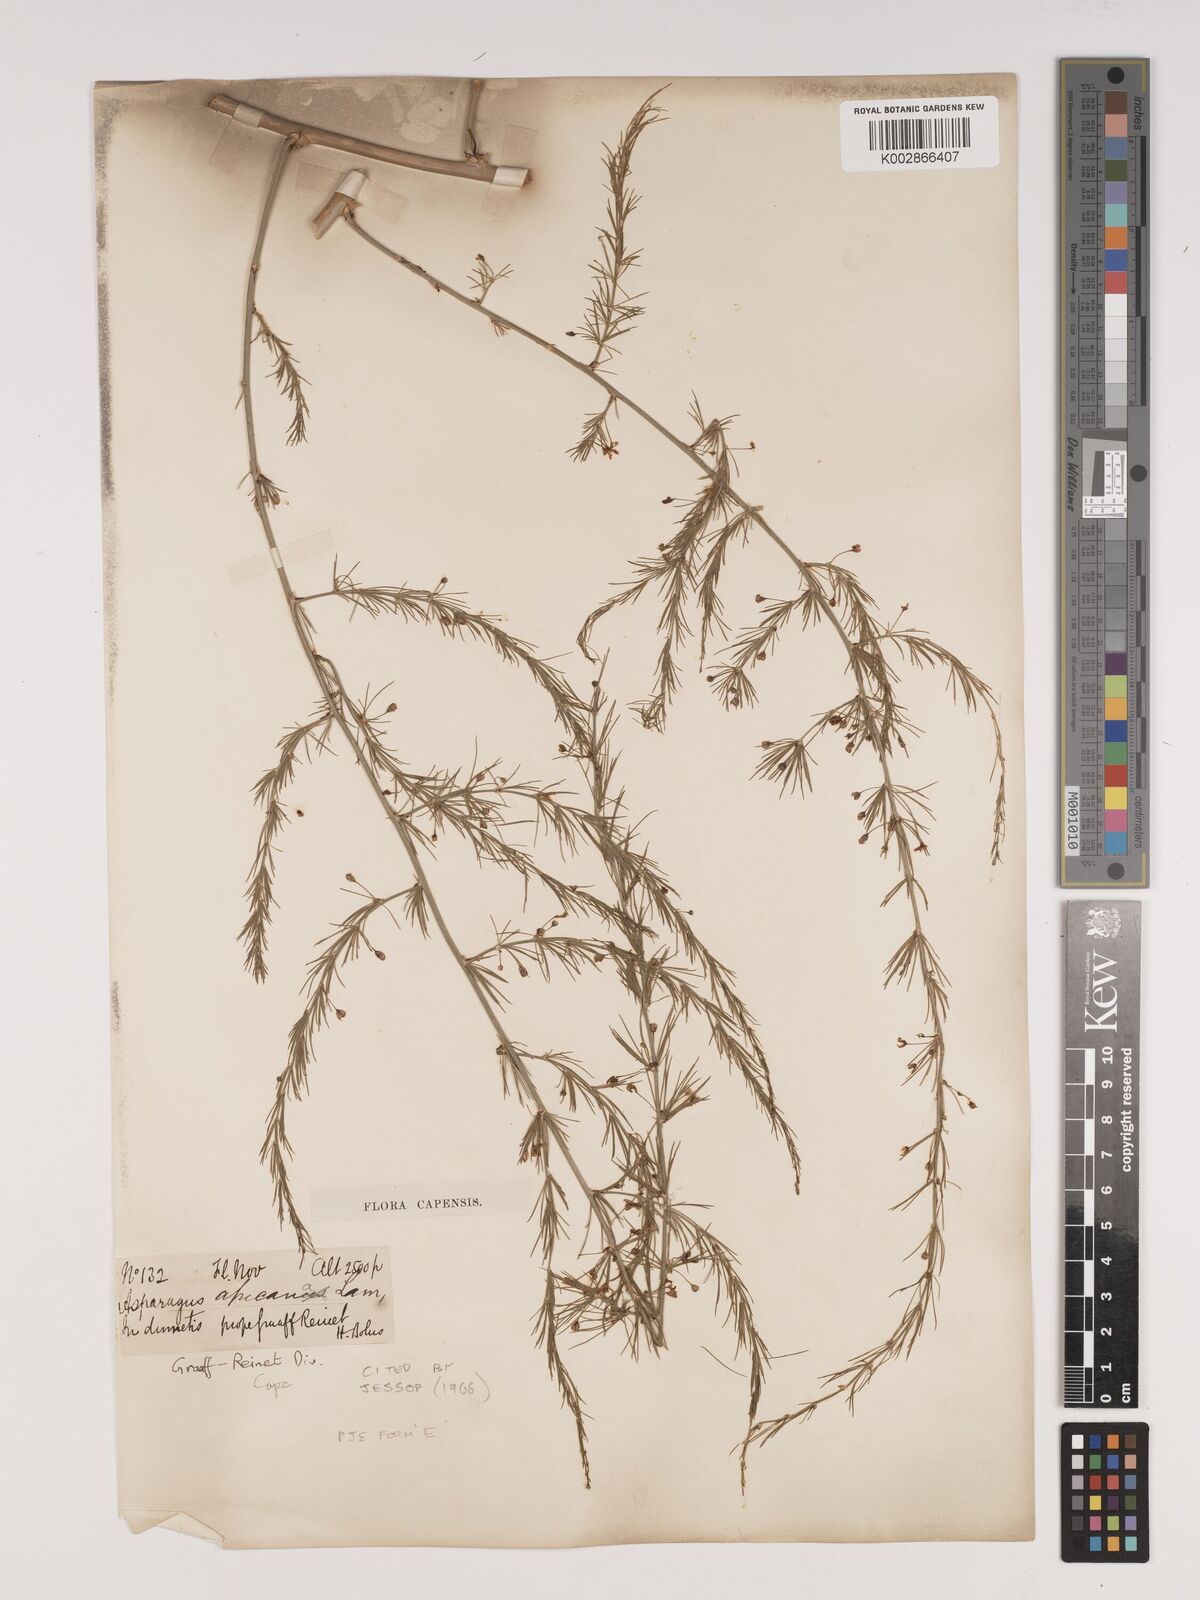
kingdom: Plantae
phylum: Tracheophyta
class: Liliopsida
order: Asparagales
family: Asparagaceae
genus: Asparagus
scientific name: Asparagus africanus
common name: Asparagus-fern
